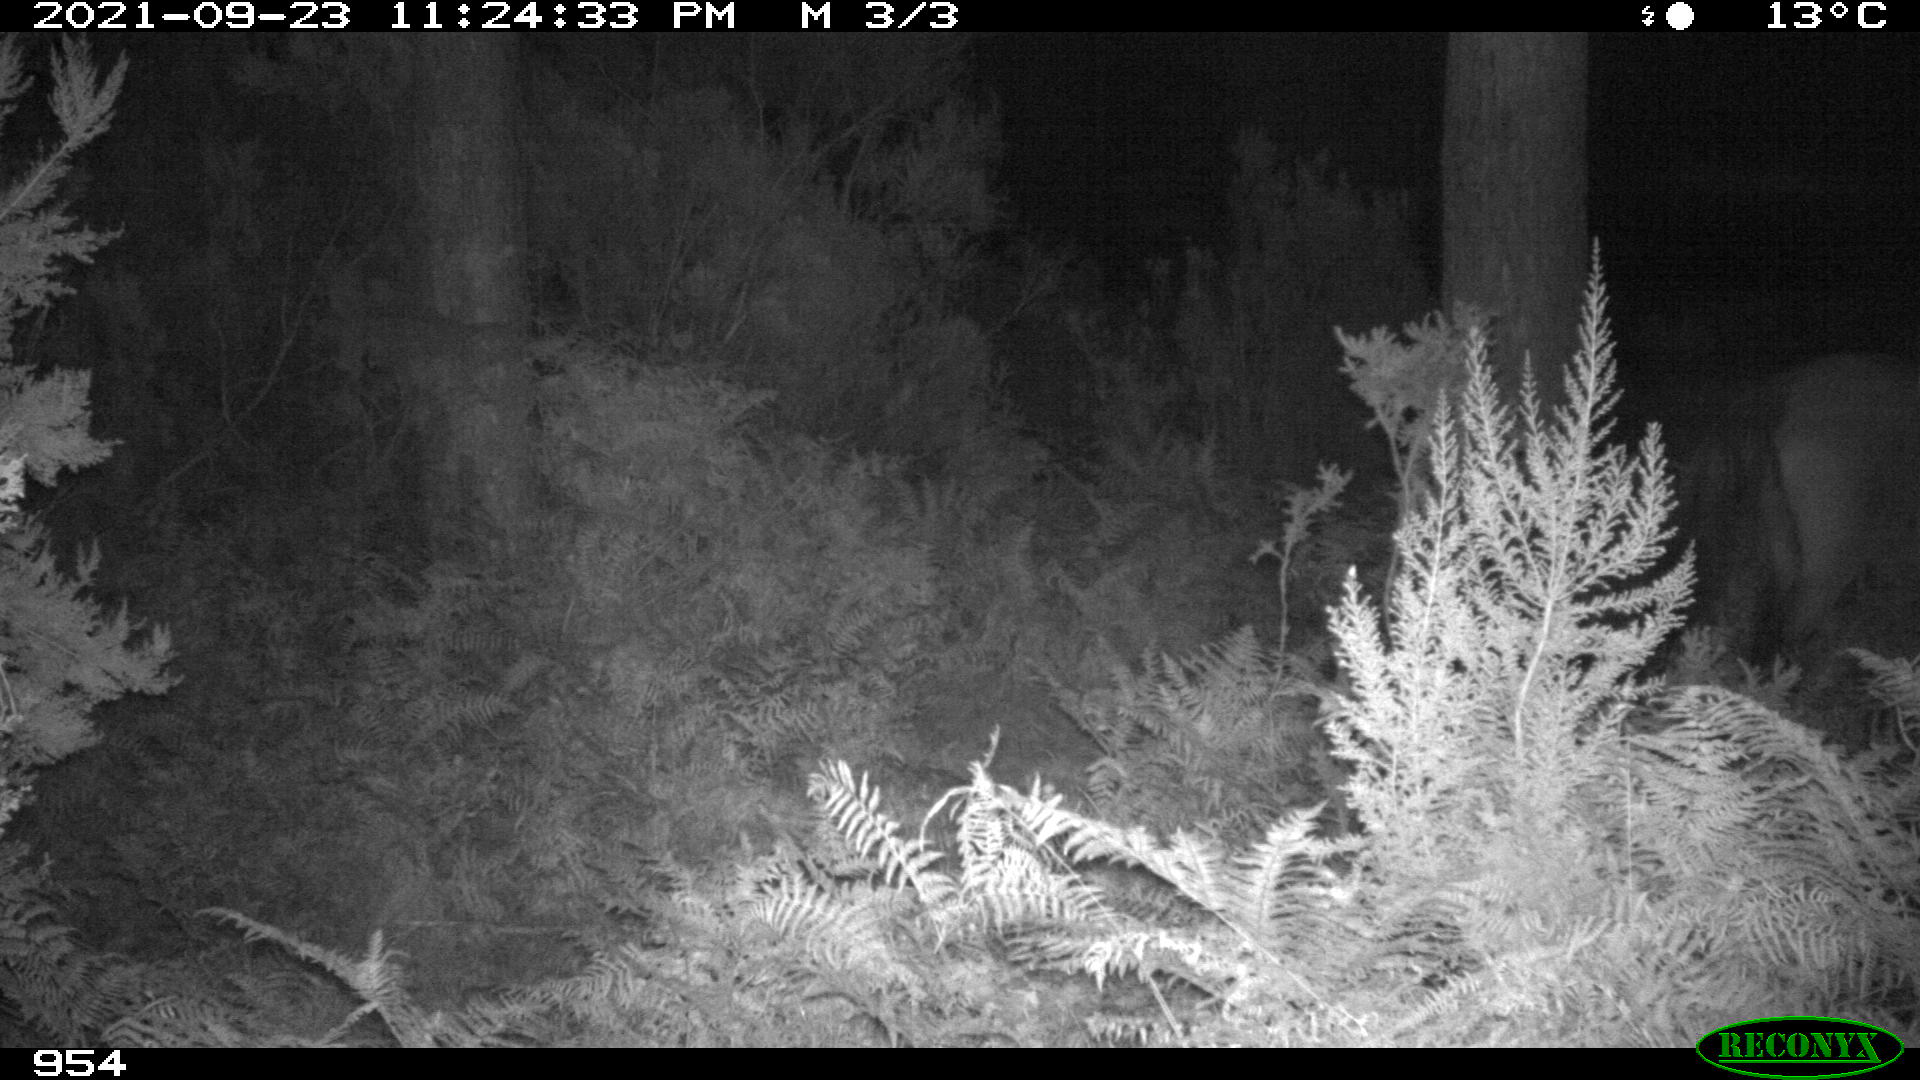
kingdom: Animalia
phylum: Chordata
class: Mammalia
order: Perissodactyla
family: Equidae
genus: Equus
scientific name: Equus caballus
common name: Horse
